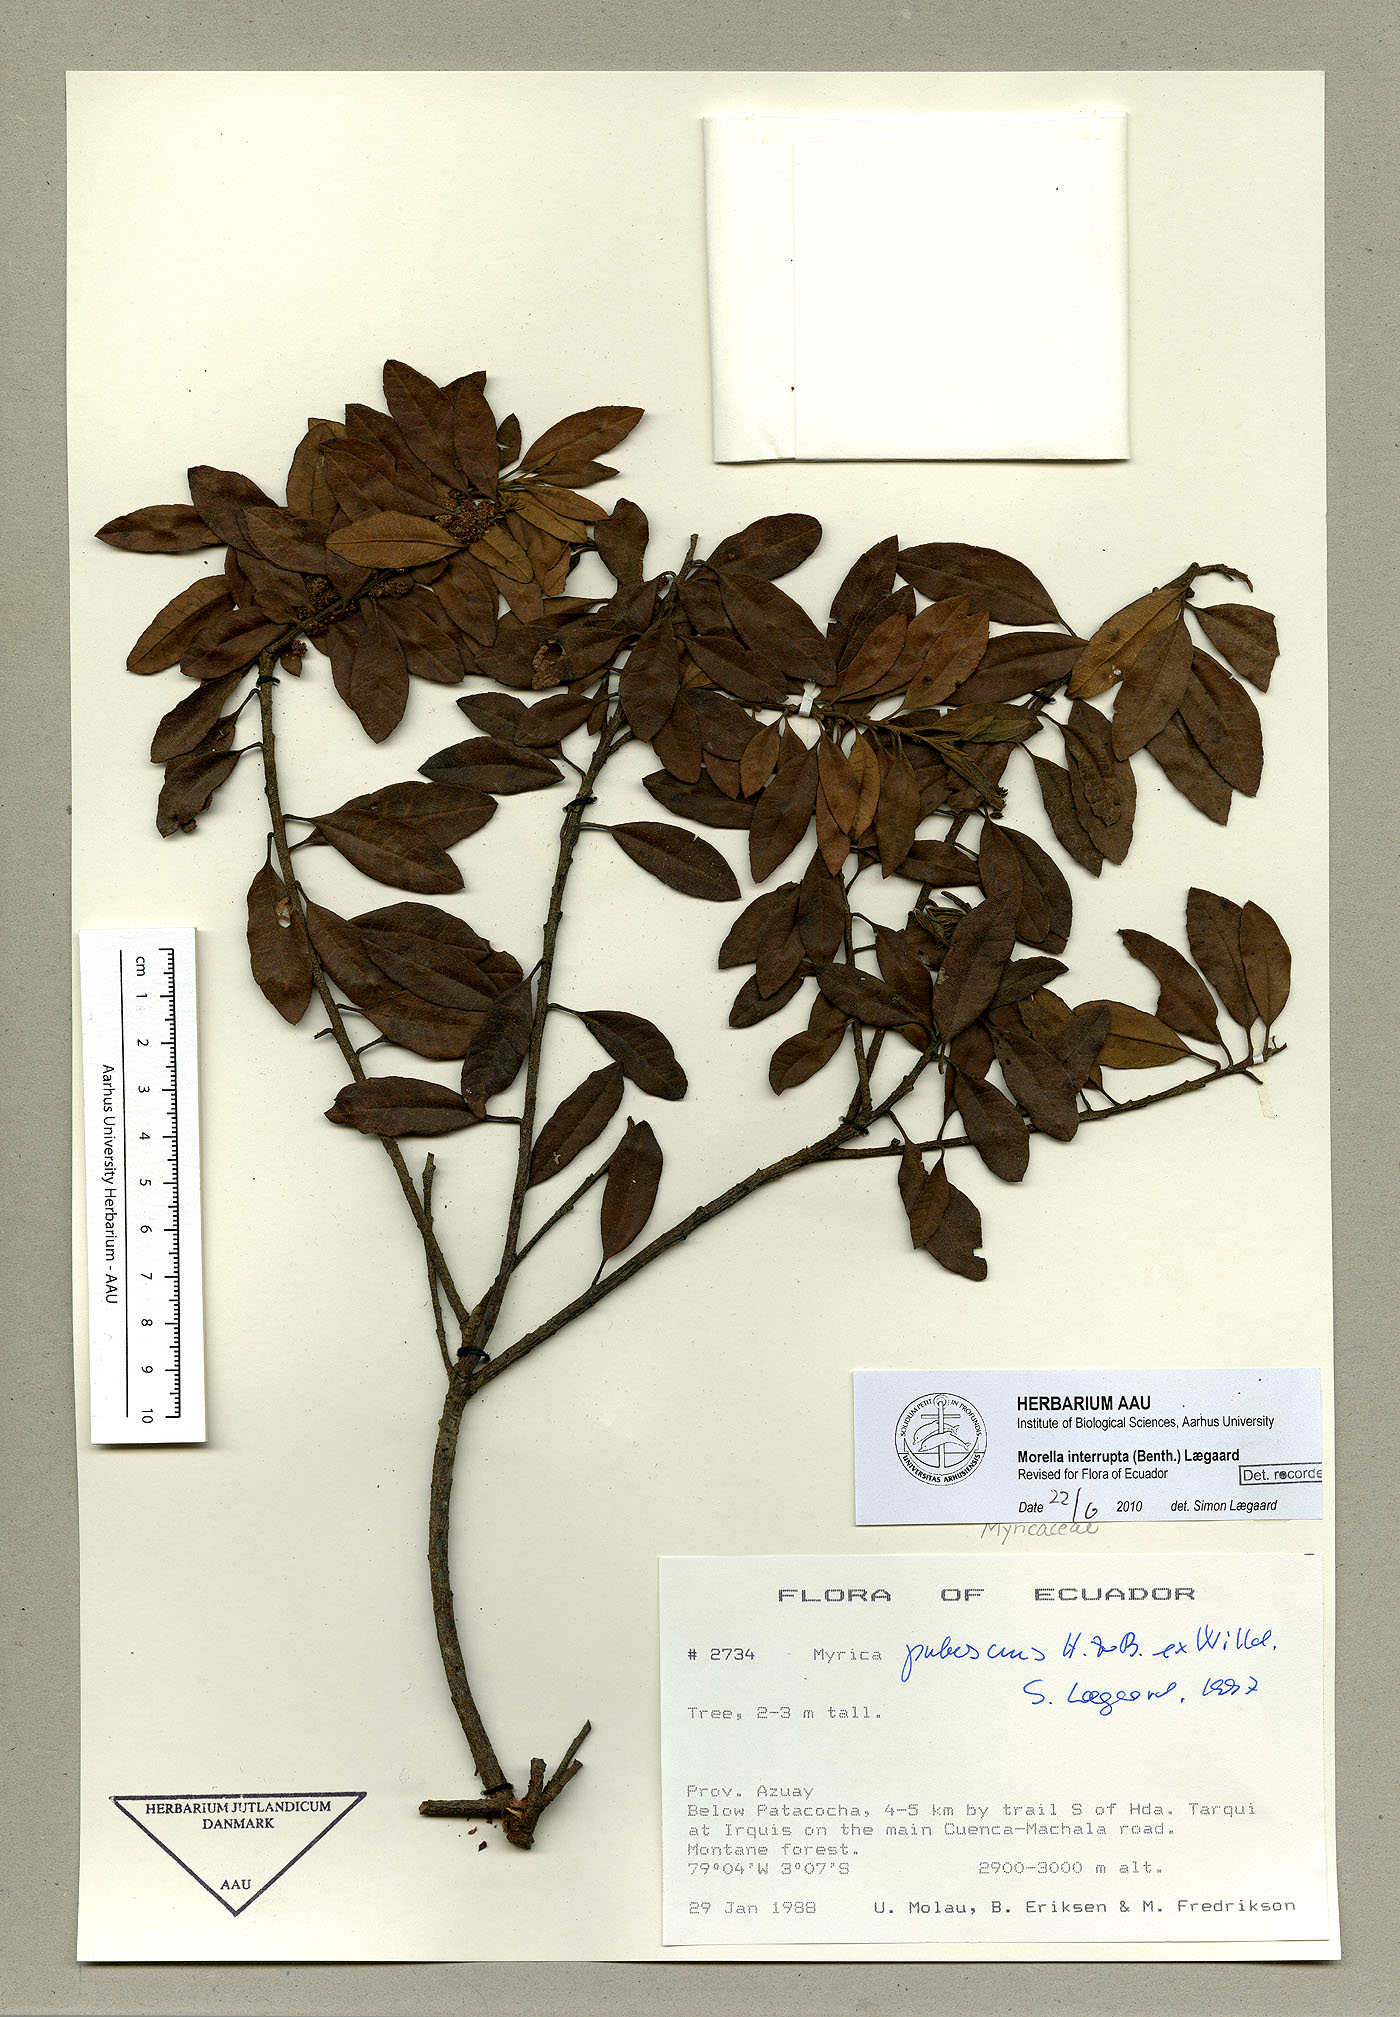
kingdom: Plantae
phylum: Tracheophyta
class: Magnoliopsida
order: Fagales
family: Myricaceae
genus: Morella
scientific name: Morella interrupta
